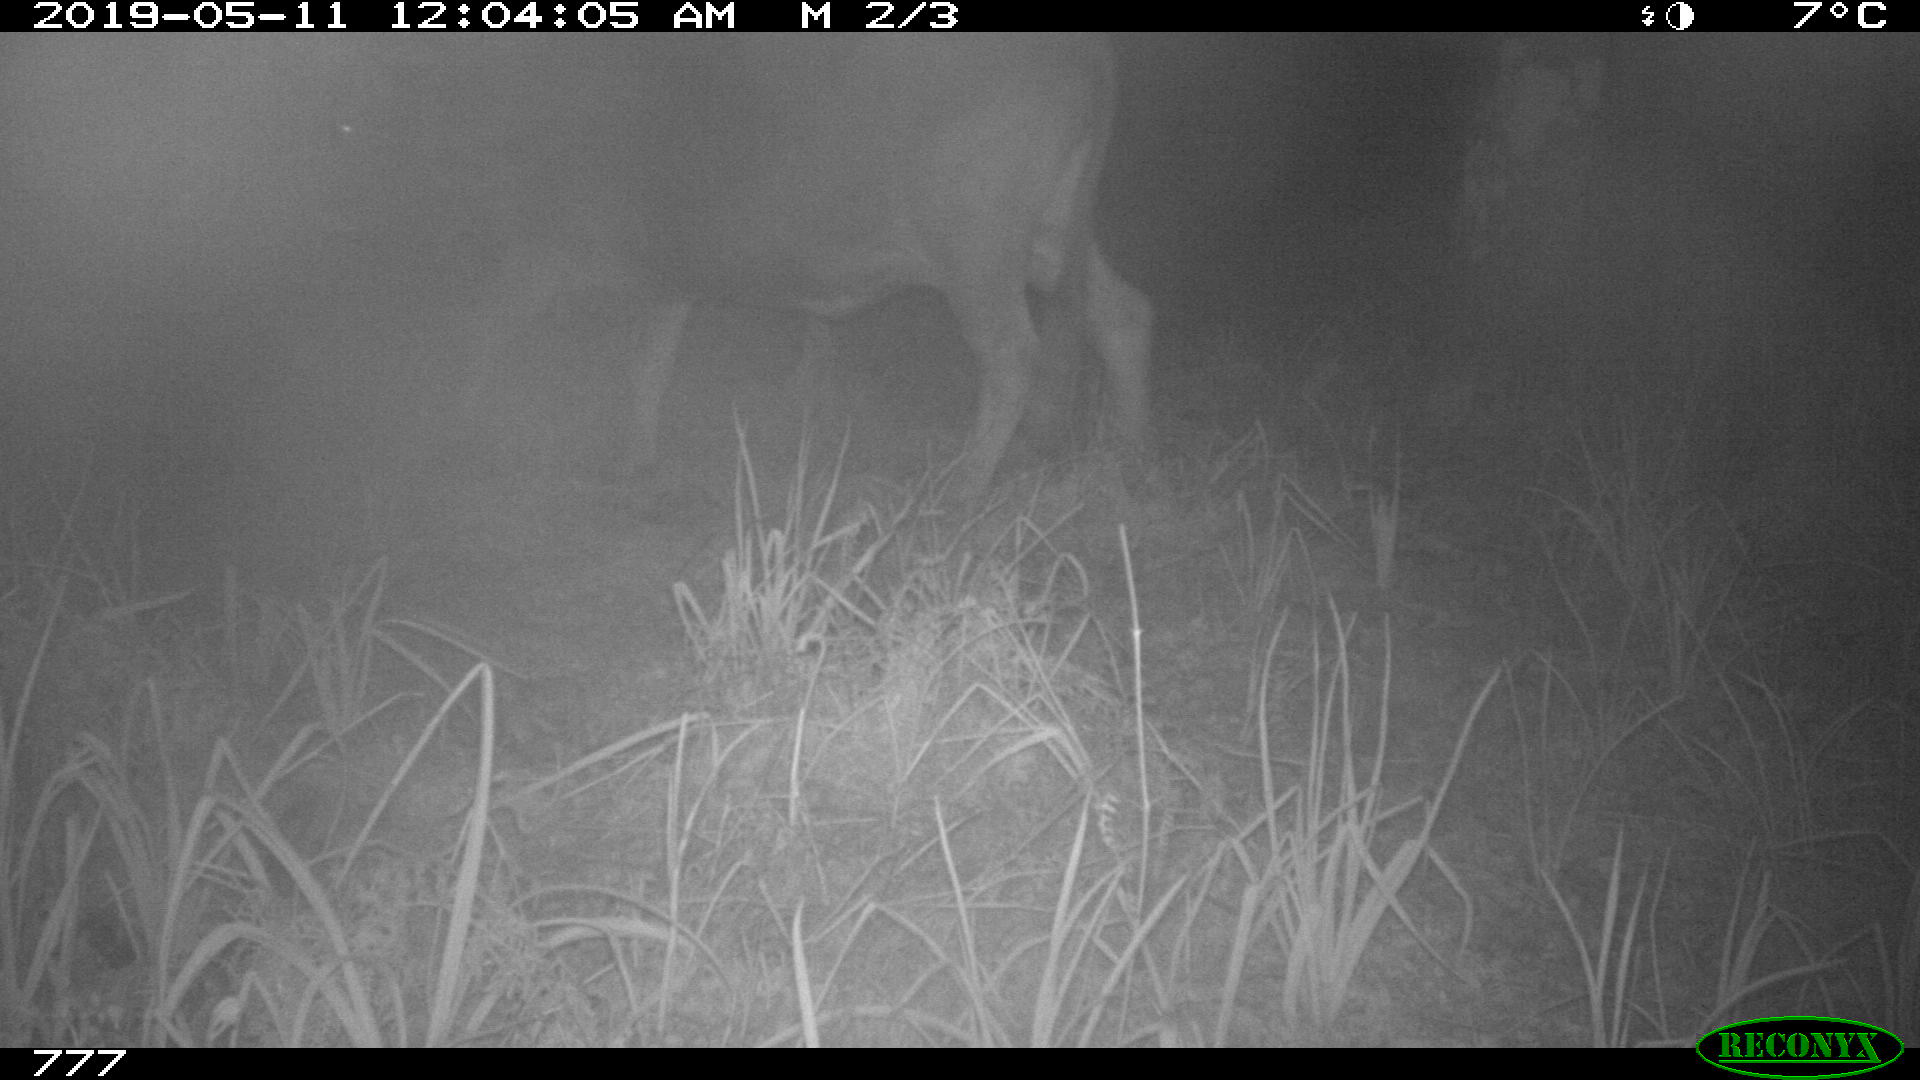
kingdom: Animalia
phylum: Chordata
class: Mammalia
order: Artiodactyla
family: Bovidae
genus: Bos
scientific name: Bos taurus
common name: Domesticated cattle
